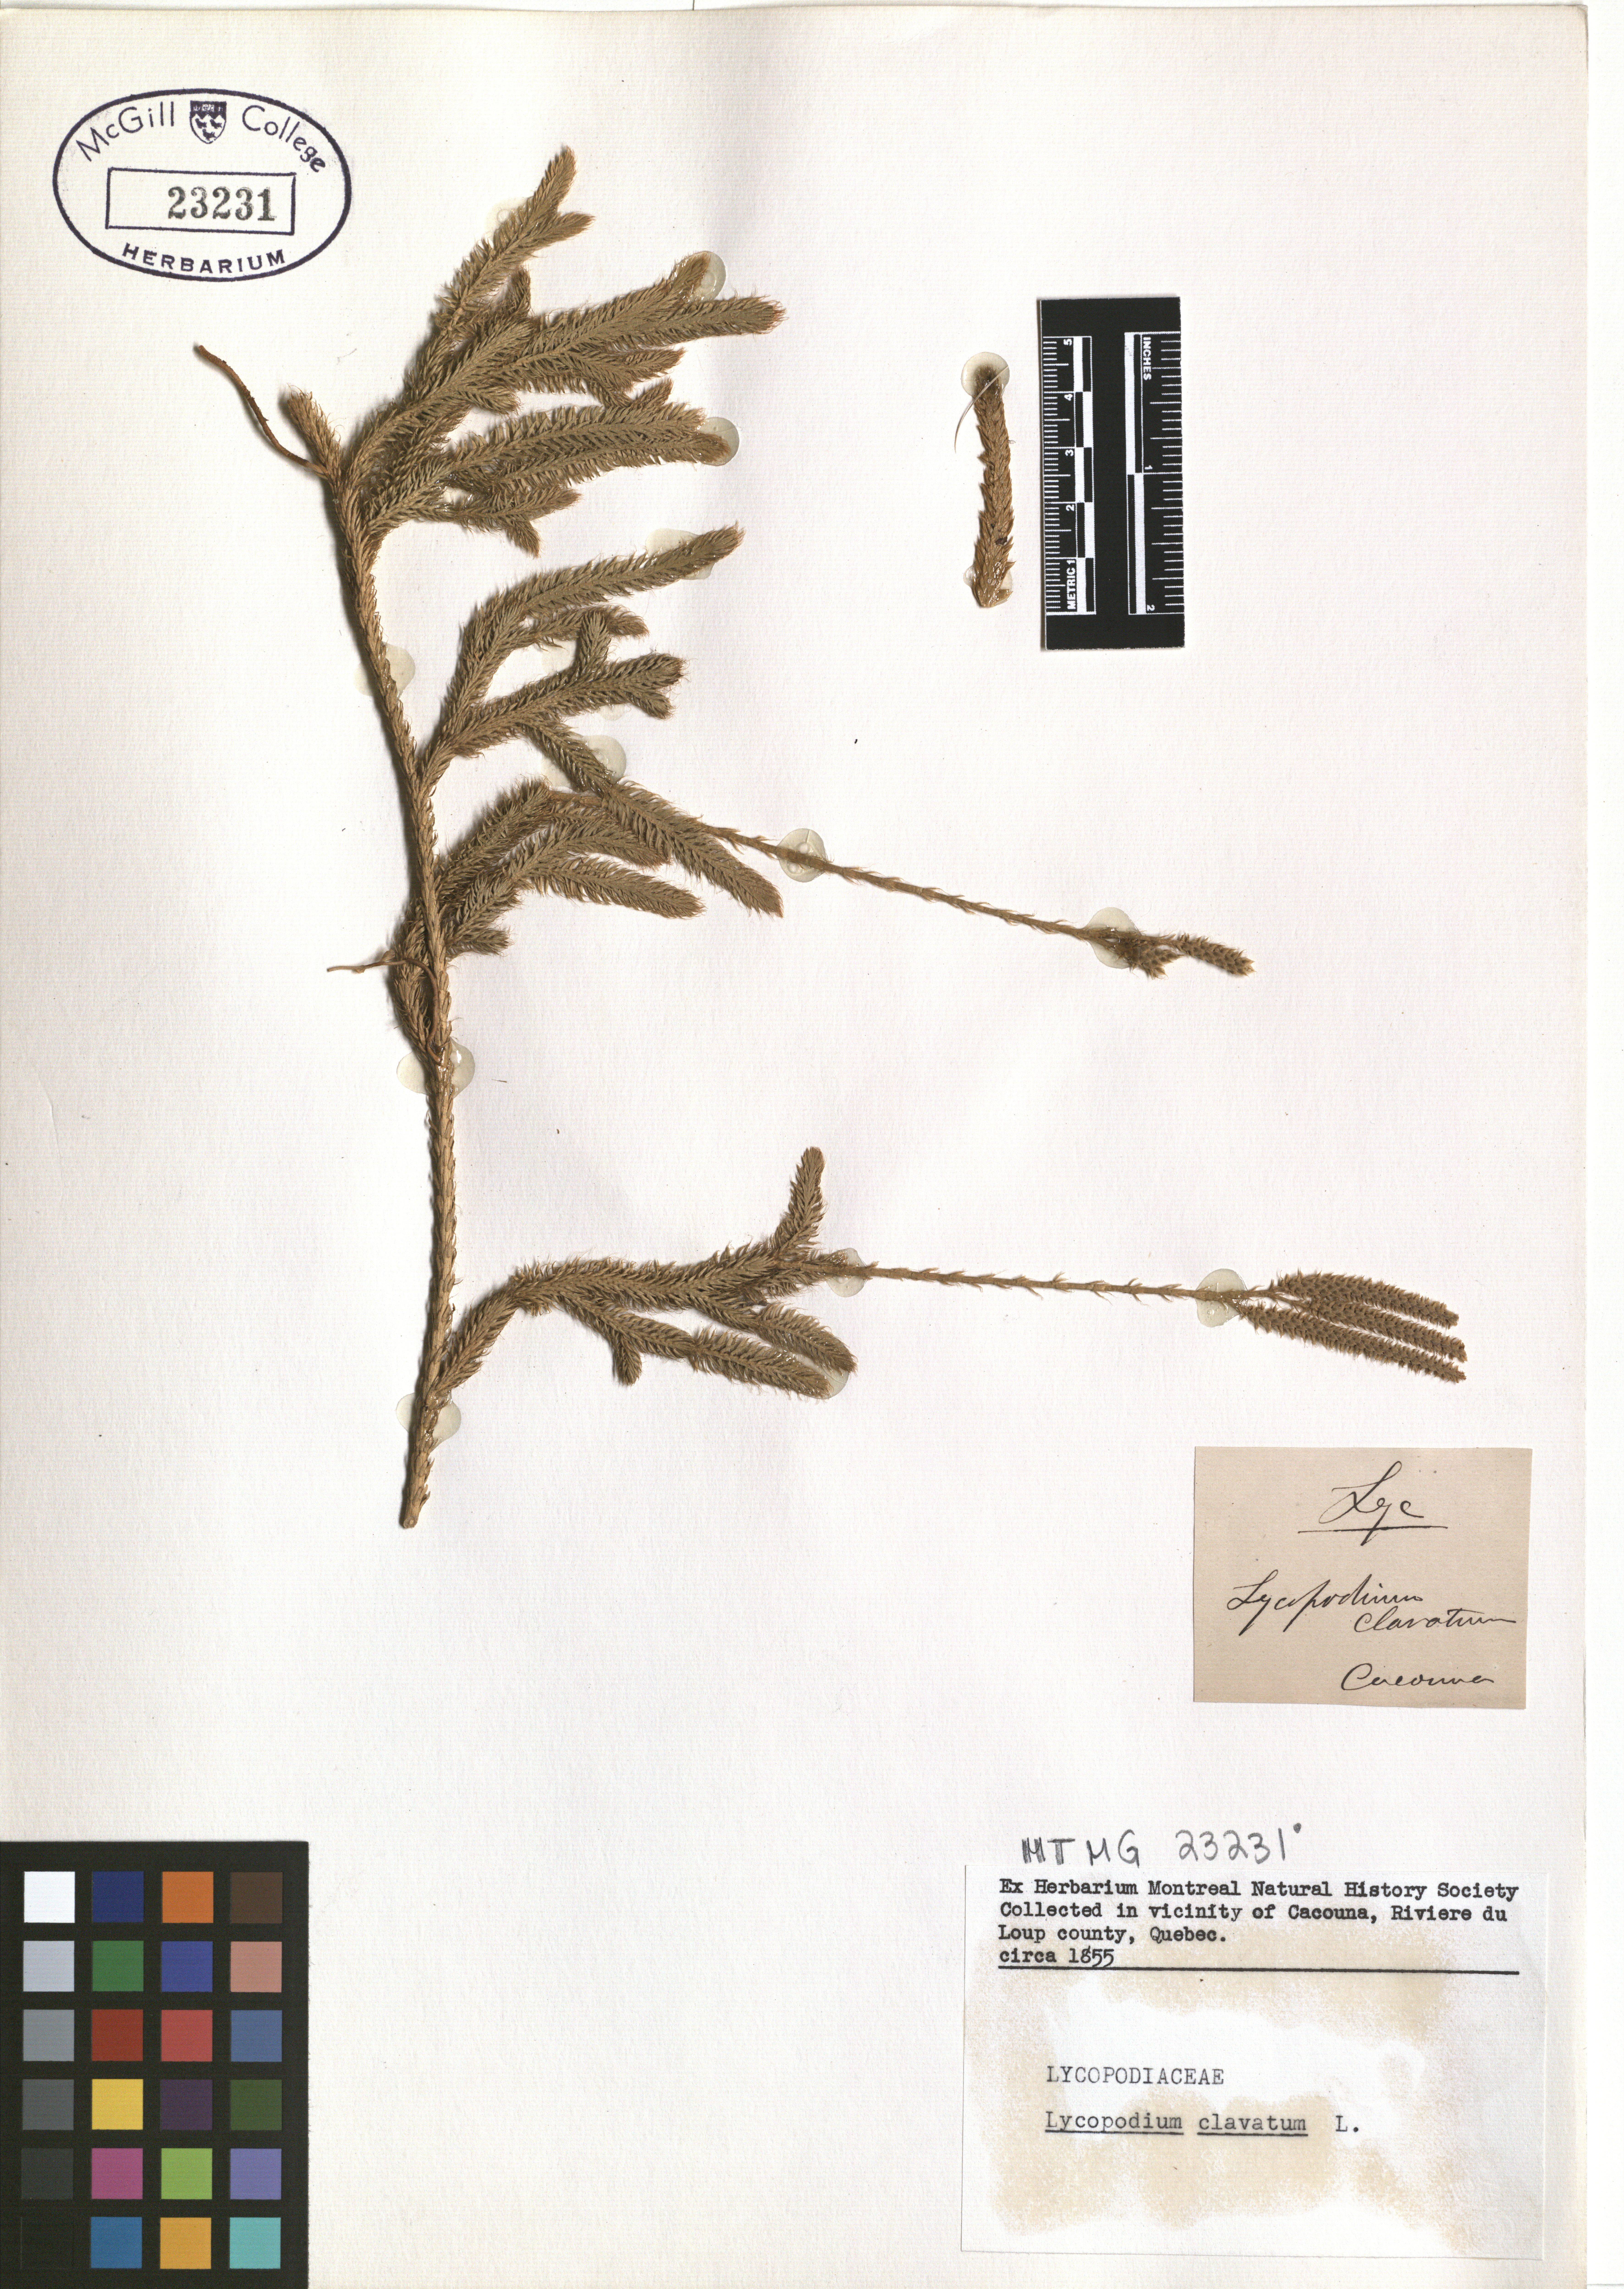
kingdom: Plantae
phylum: Tracheophyta
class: Lycopodiopsida
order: Lycopodiales
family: Lycopodiaceae
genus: Lycopodium
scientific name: Lycopodium clavatum
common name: Stag's-horn clubmoss
